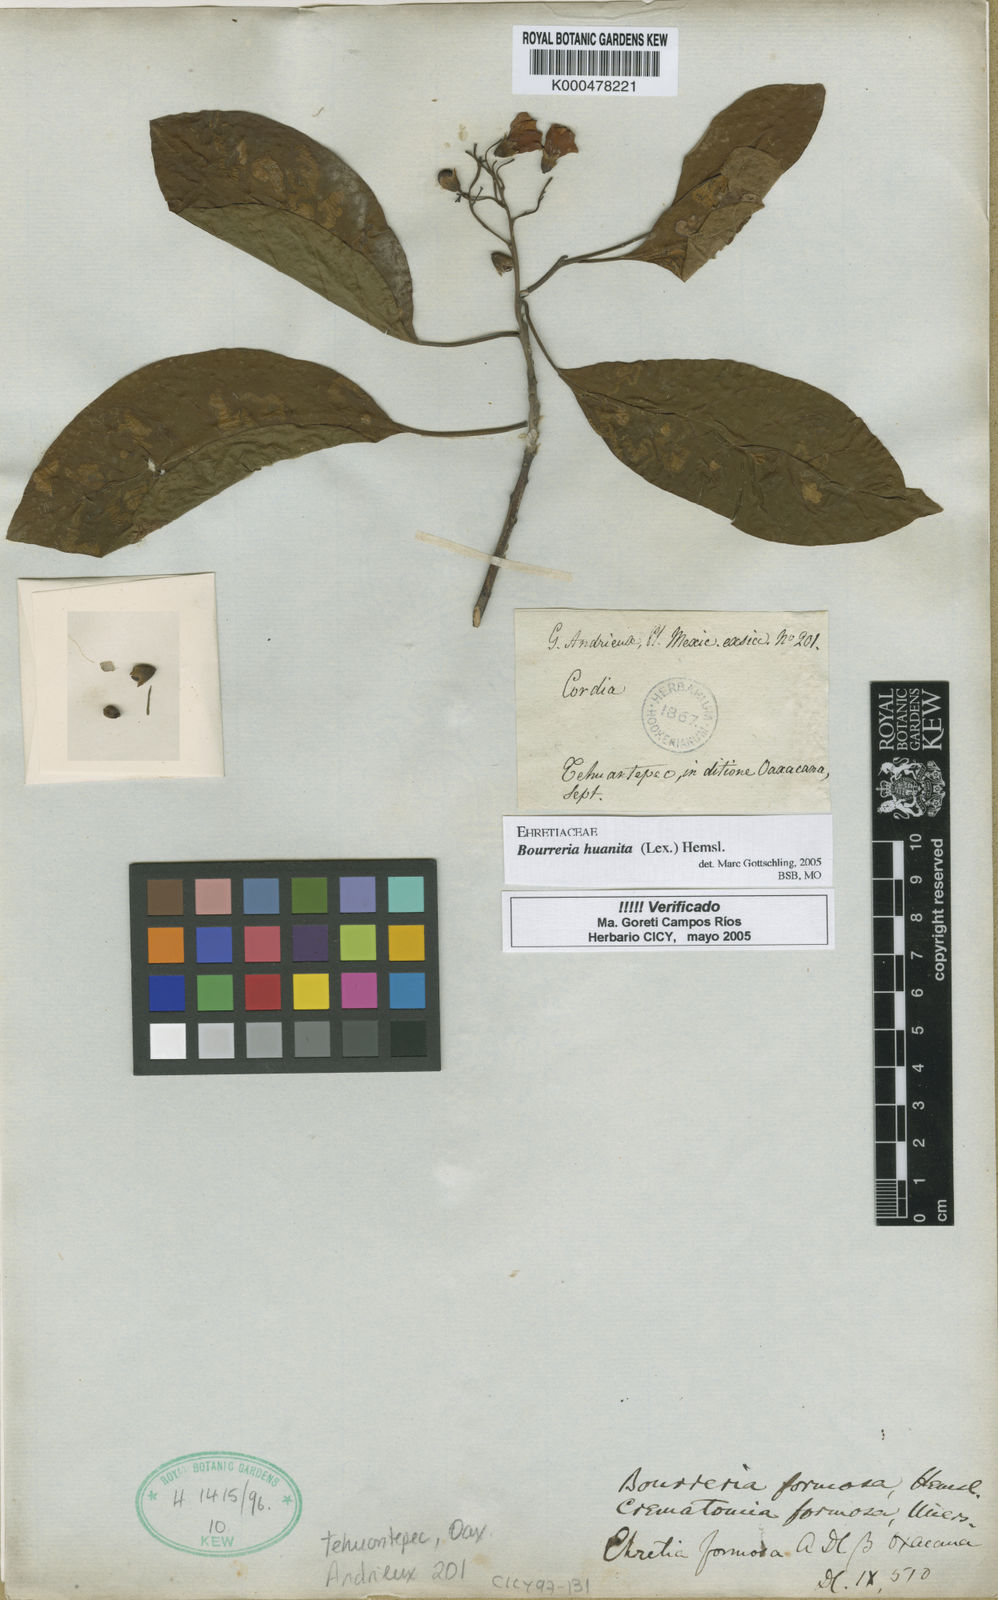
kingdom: Plantae
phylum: Tracheophyta
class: Magnoliopsida
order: Boraginales
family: Ehretiaceae
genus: Bourreria
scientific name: Bourreria huanita
